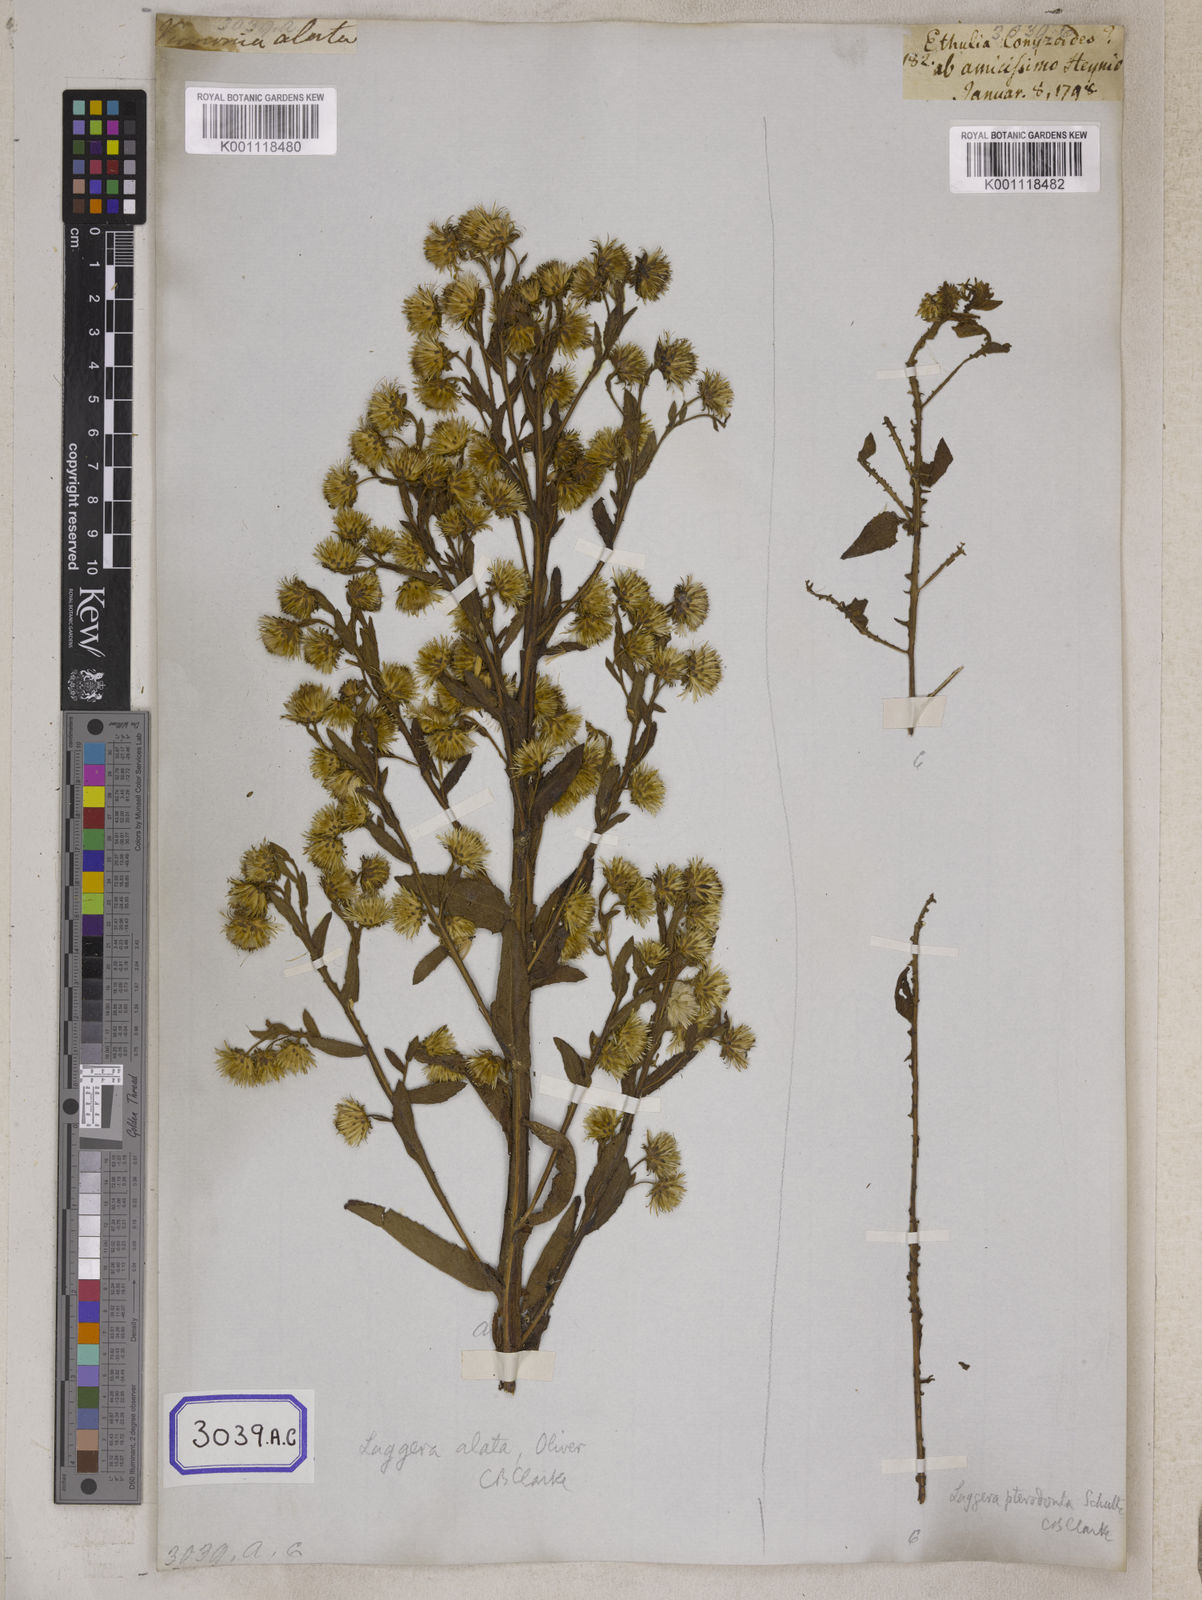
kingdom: Plantae
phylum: Tracheophyta
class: Magnoliopsida
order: Asterales
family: Asteraceae
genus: Conyza
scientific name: Conyza
